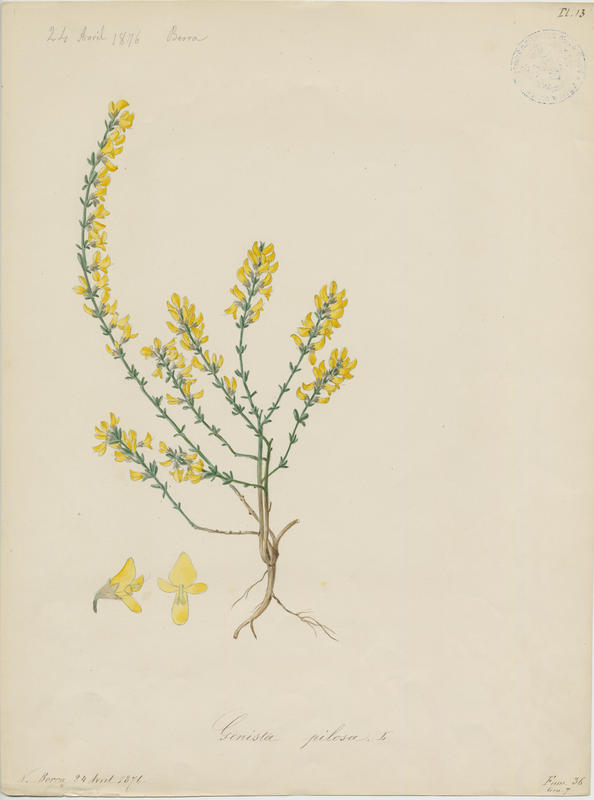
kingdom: Plantae
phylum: Tracheophyta
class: Magnoliopsida
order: Fabales
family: Fabaceae
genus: Genista
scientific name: Genista pilosa
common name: Hairy greenweed
